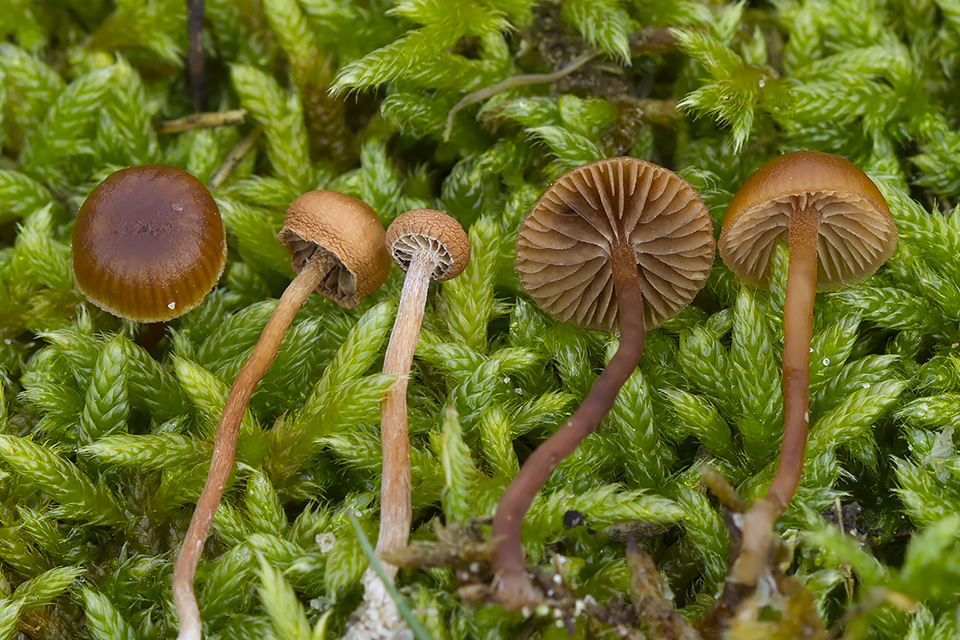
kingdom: Fungi
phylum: Basidiomycota
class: Agaricomycetes
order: Agaricales
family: Strophariaceae
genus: Deconica
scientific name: Deconica montana
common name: rødbrun stråhat
